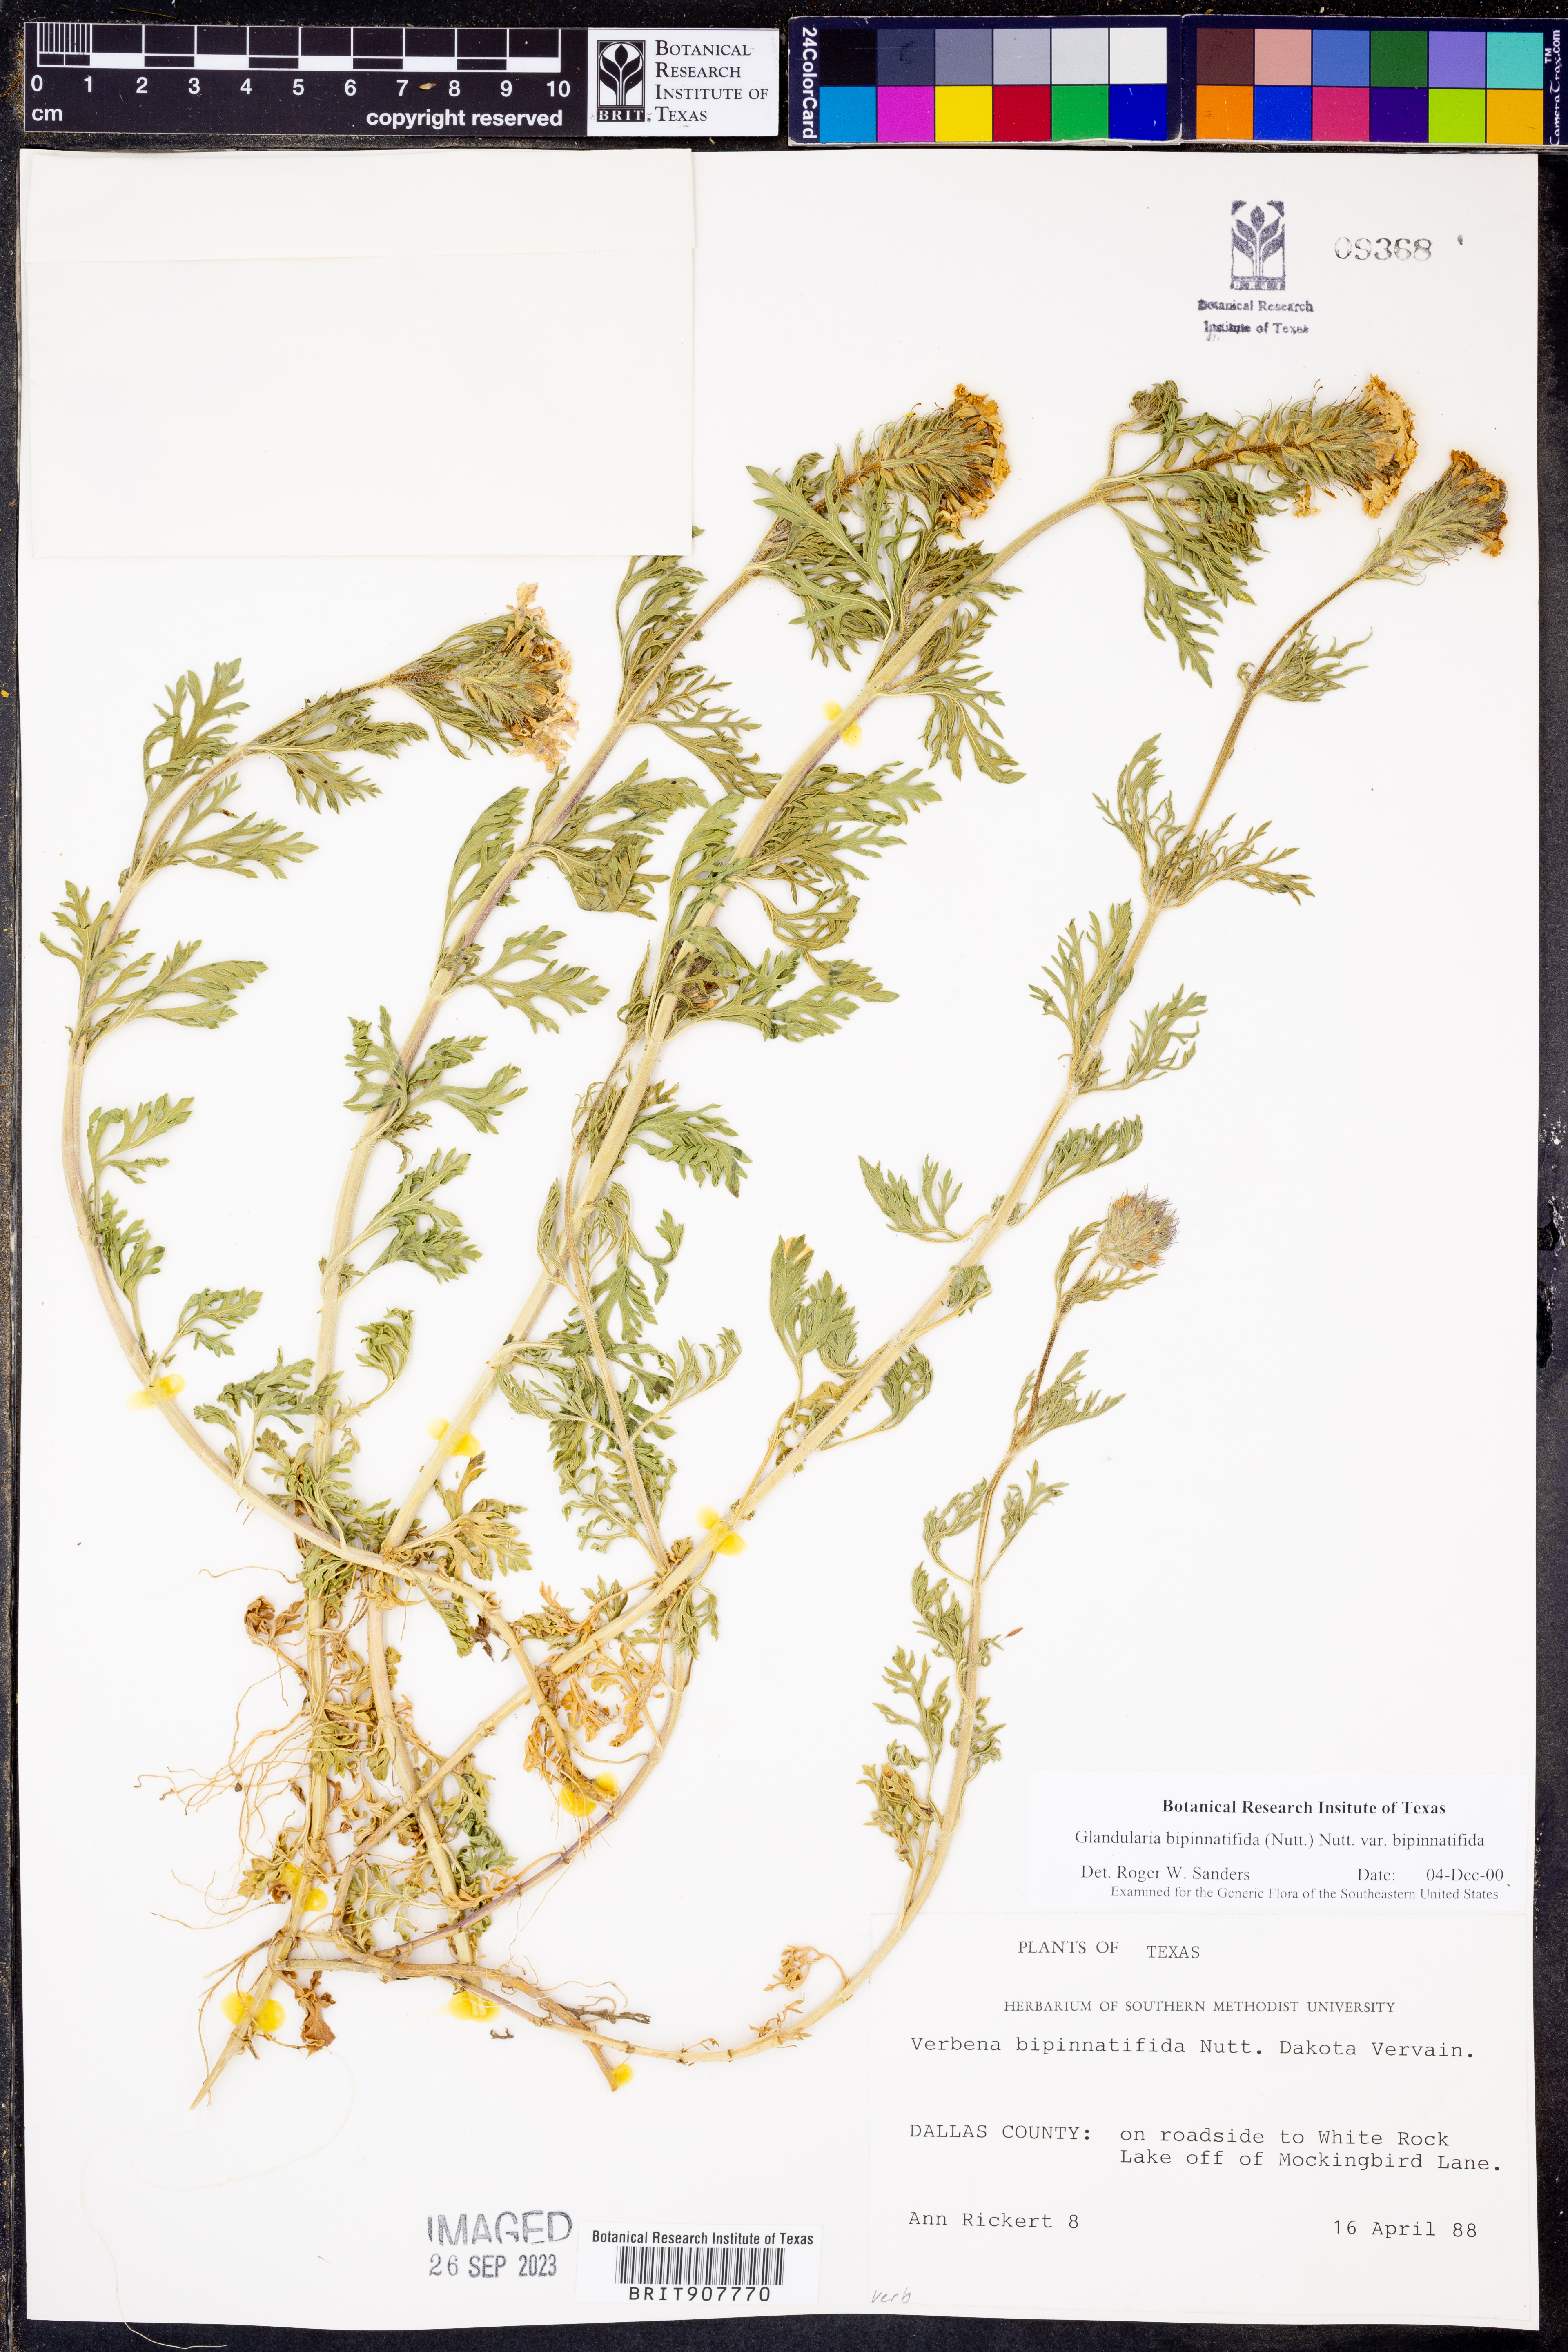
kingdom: Plantae
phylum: Tracheophyta
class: Magnoliopsida
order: Lamiales
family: Verbenaceae
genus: Verbena
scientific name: Verbena bipinnatifida
